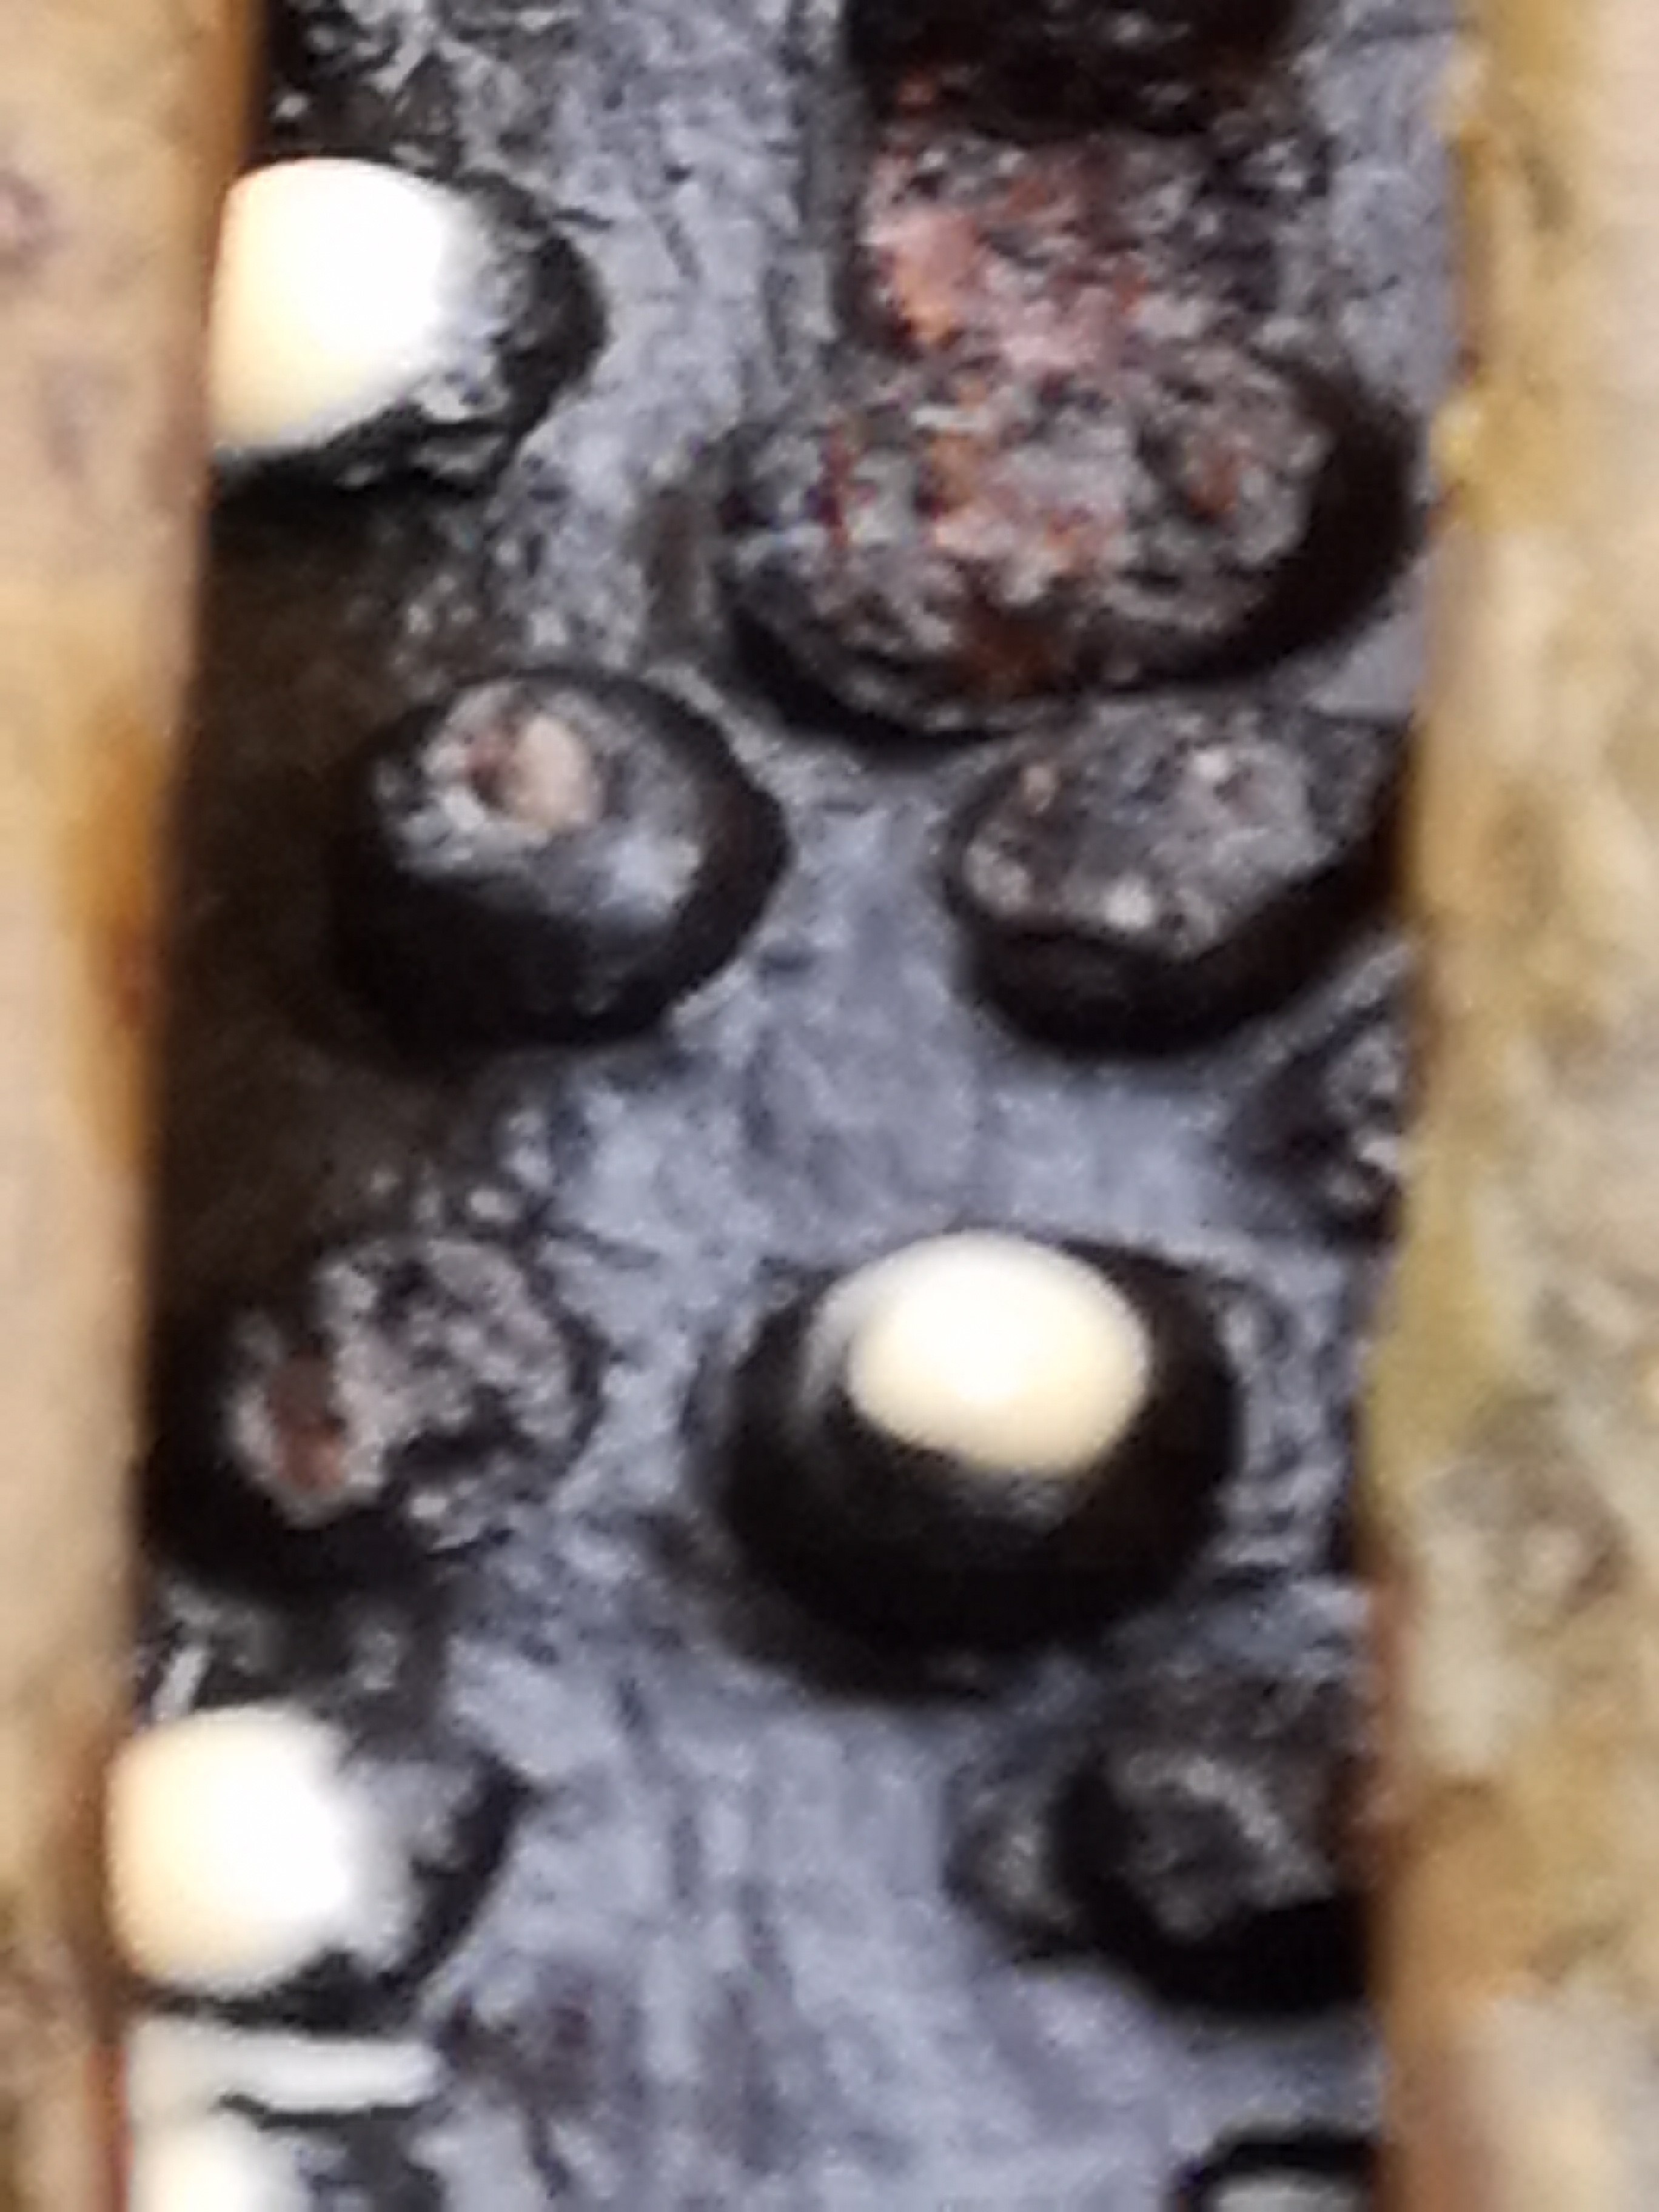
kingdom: Fungi
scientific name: Fungi
